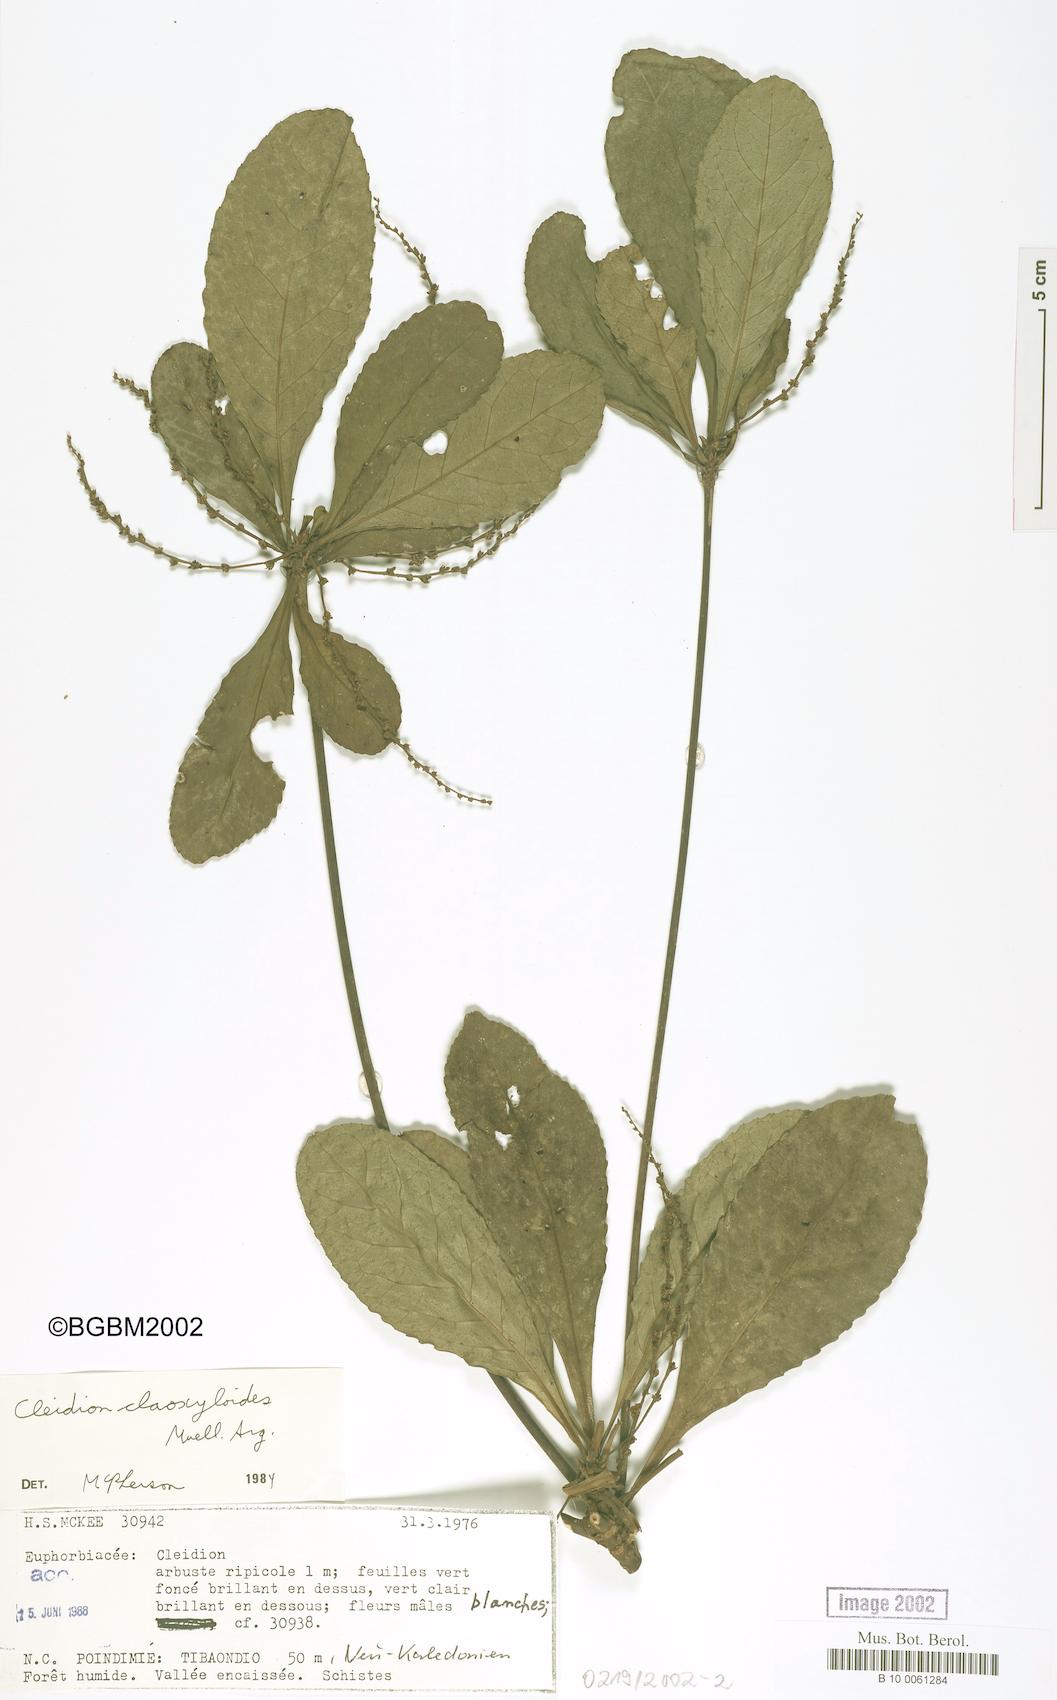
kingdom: Plantae
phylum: Tracheophyta
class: Magnoliopsida
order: Malpighiales
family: Euphorbiaceae
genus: Cleidion
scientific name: Cleidion claoxyloides
